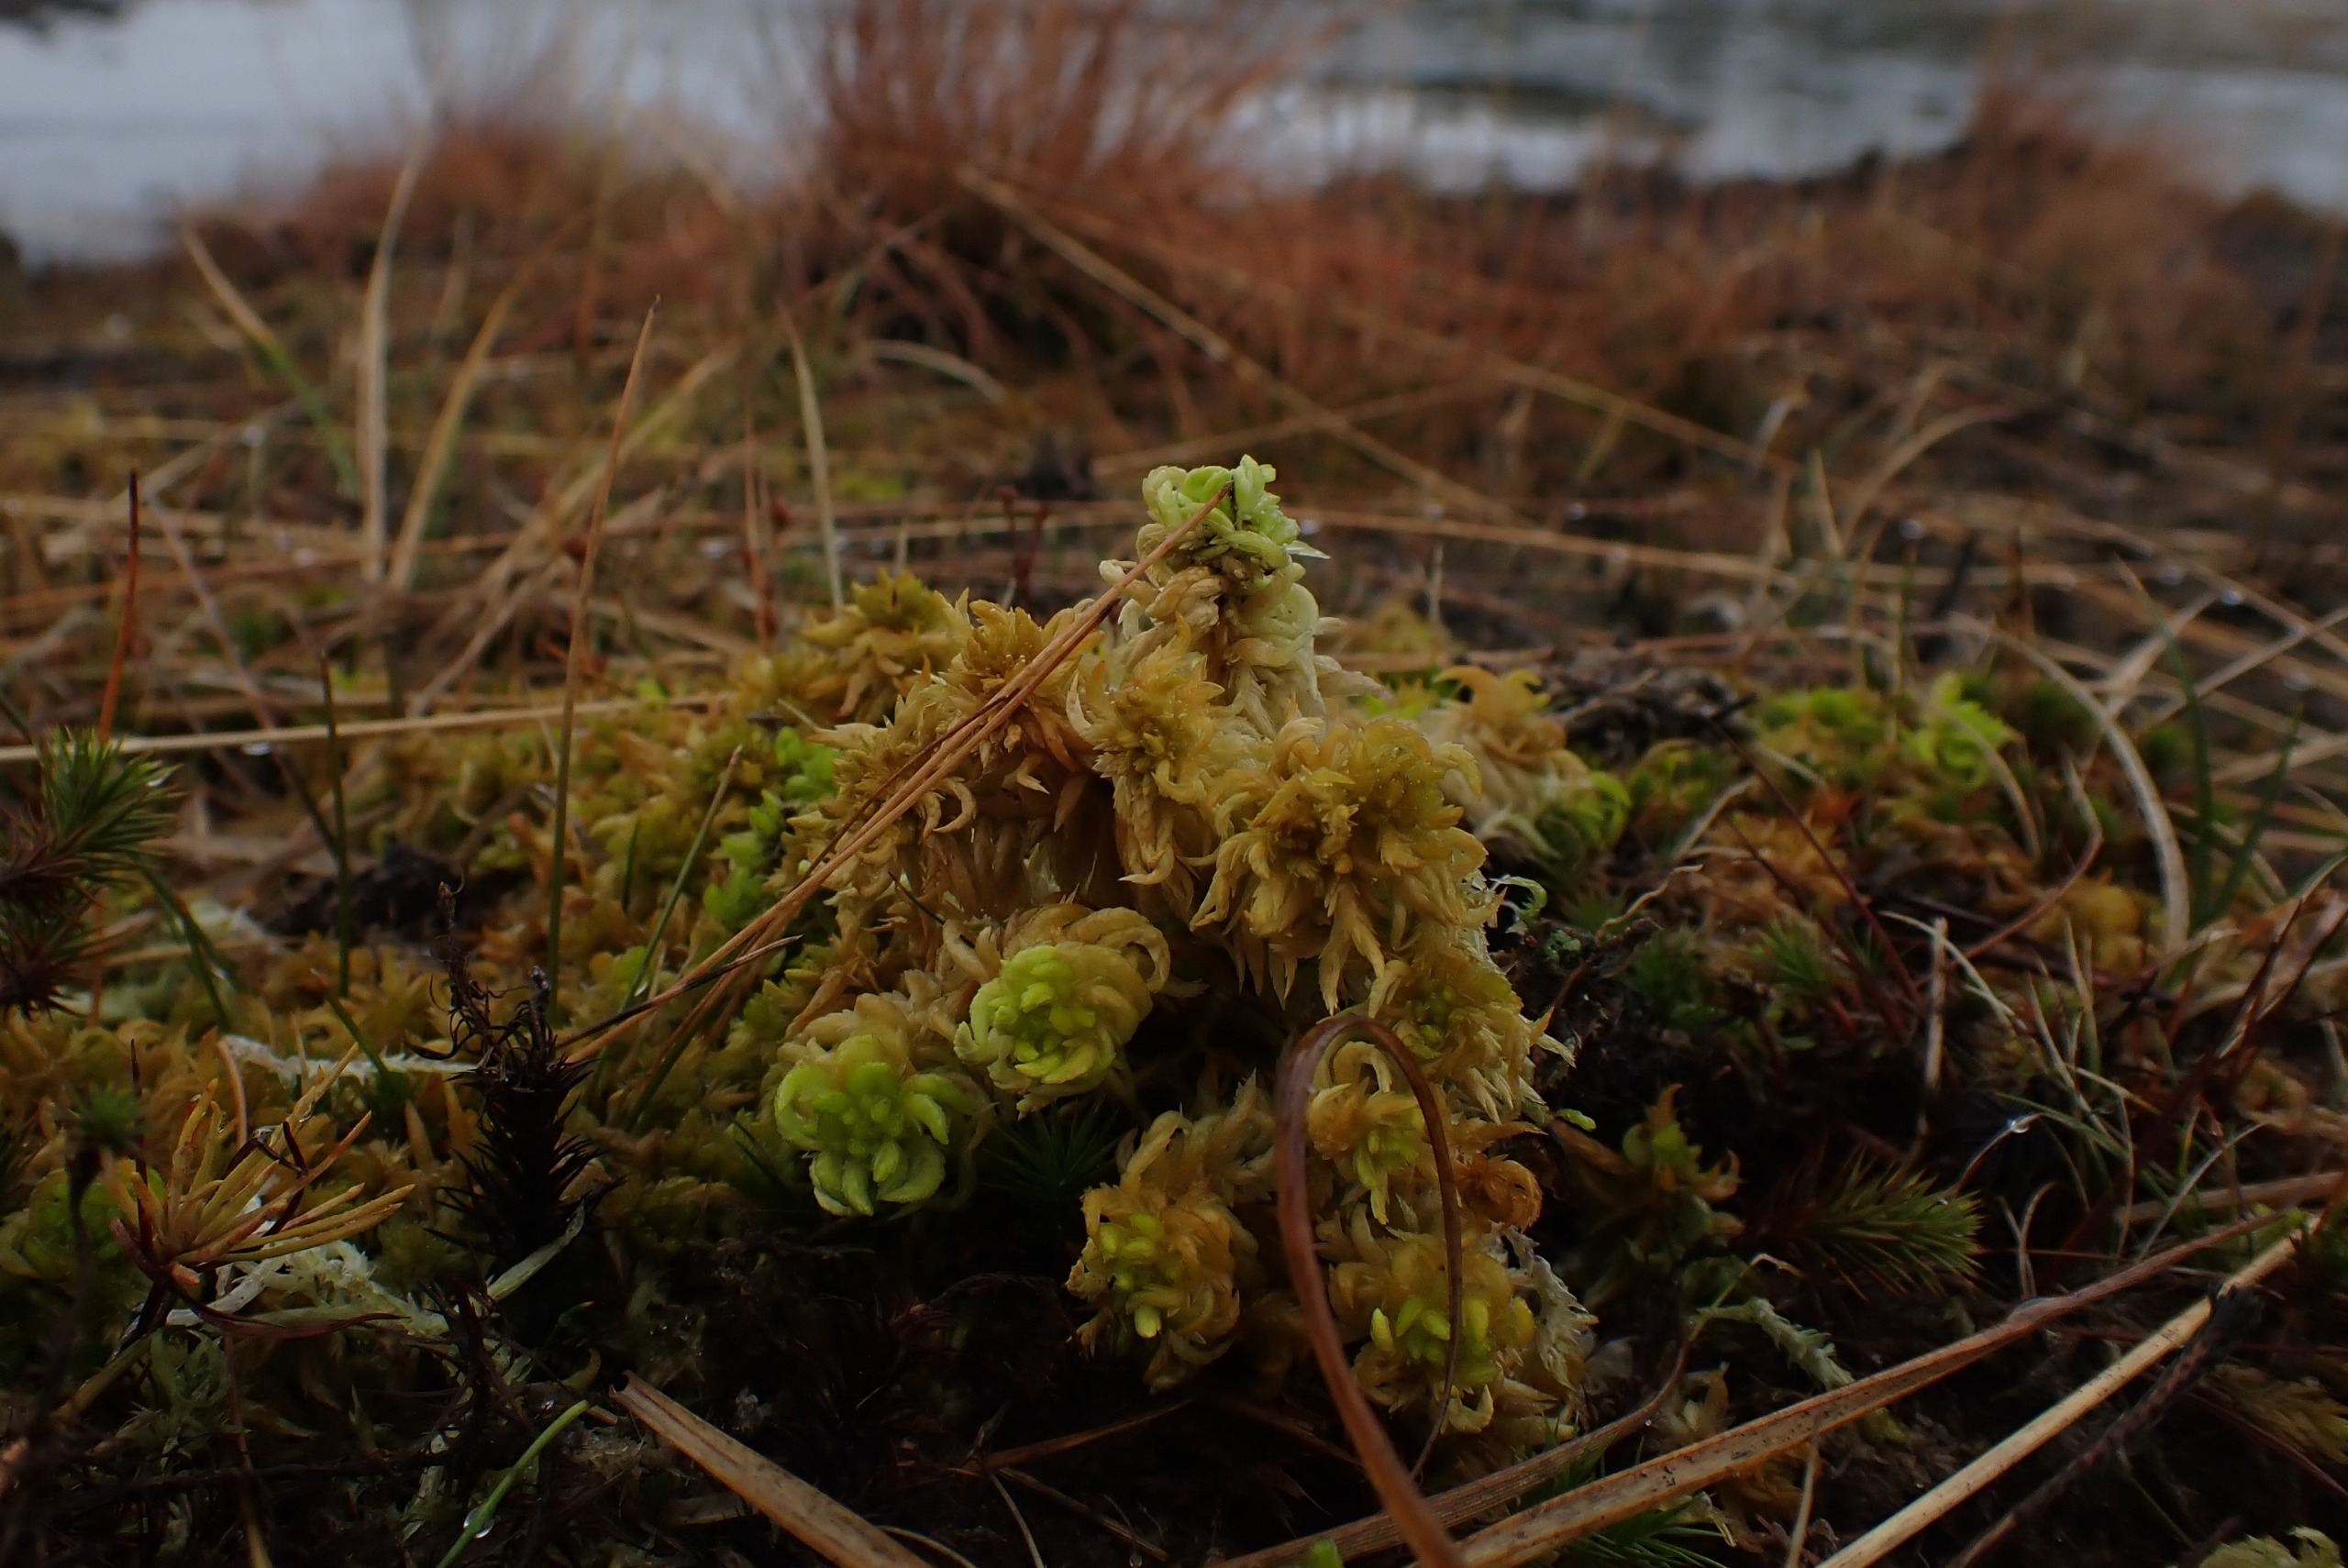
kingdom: Plantae
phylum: Bryophyta
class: Sphagnopsida
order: Sphagnales
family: Sphagnaceae
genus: Sphagnum
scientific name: Sphagnum denticulatum
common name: Rødbrun tørvemos
